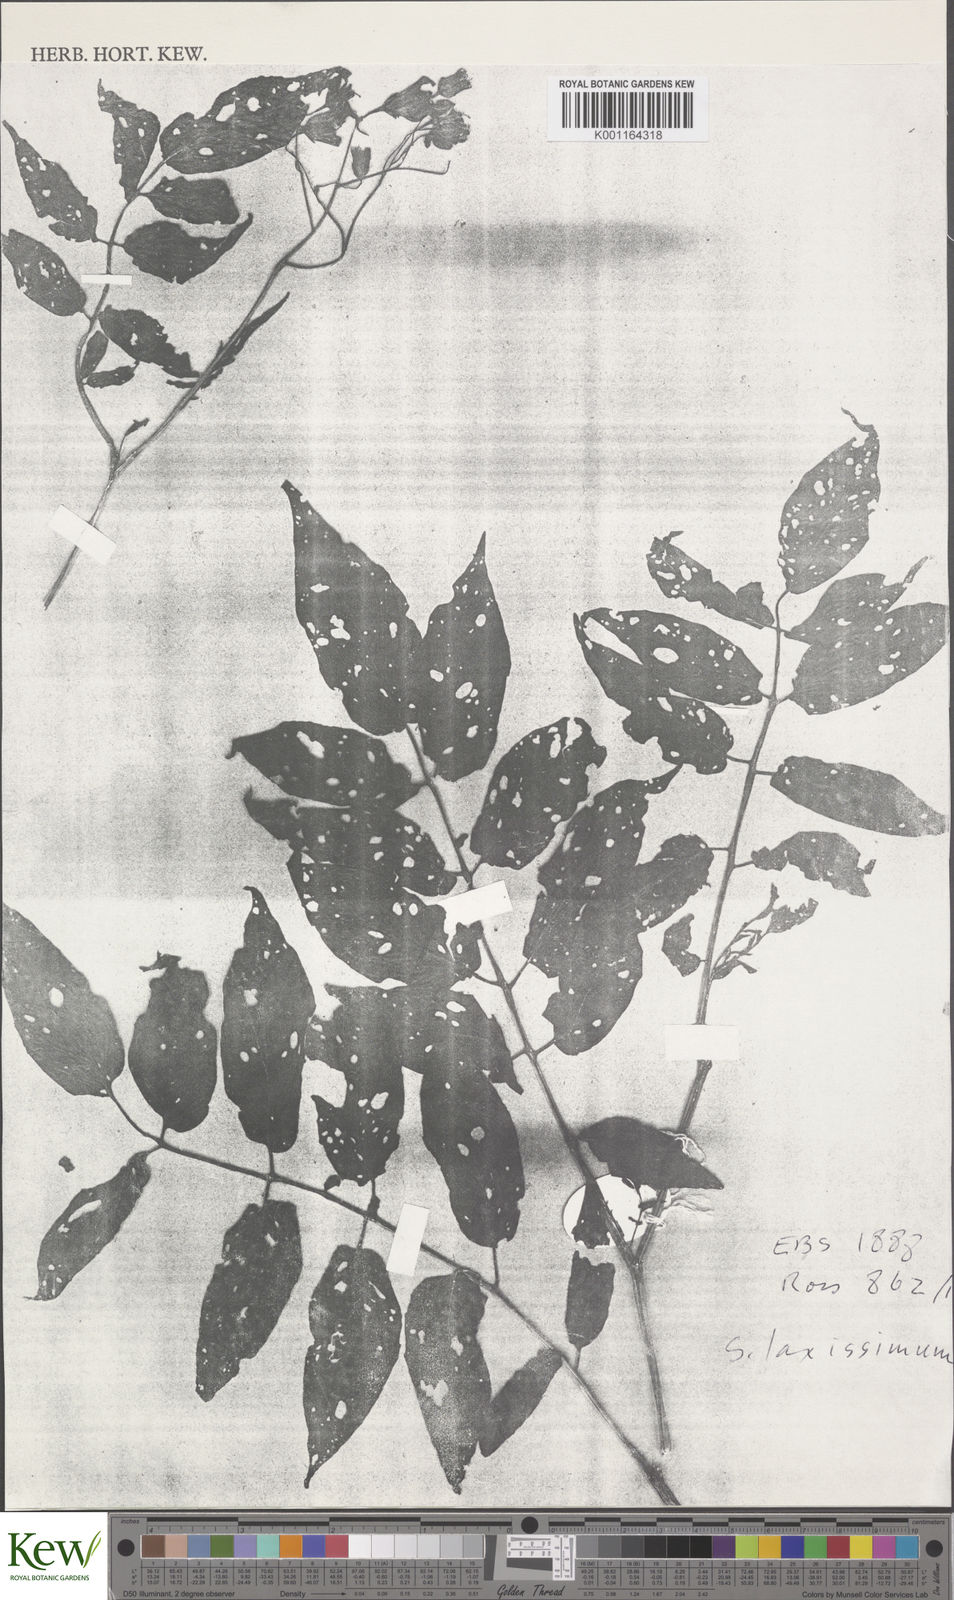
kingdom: Plantae
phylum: Tracheophyta
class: Magnoliopsida
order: Solanales
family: Solanaceae
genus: Solanum
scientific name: Solanum laxissimum
